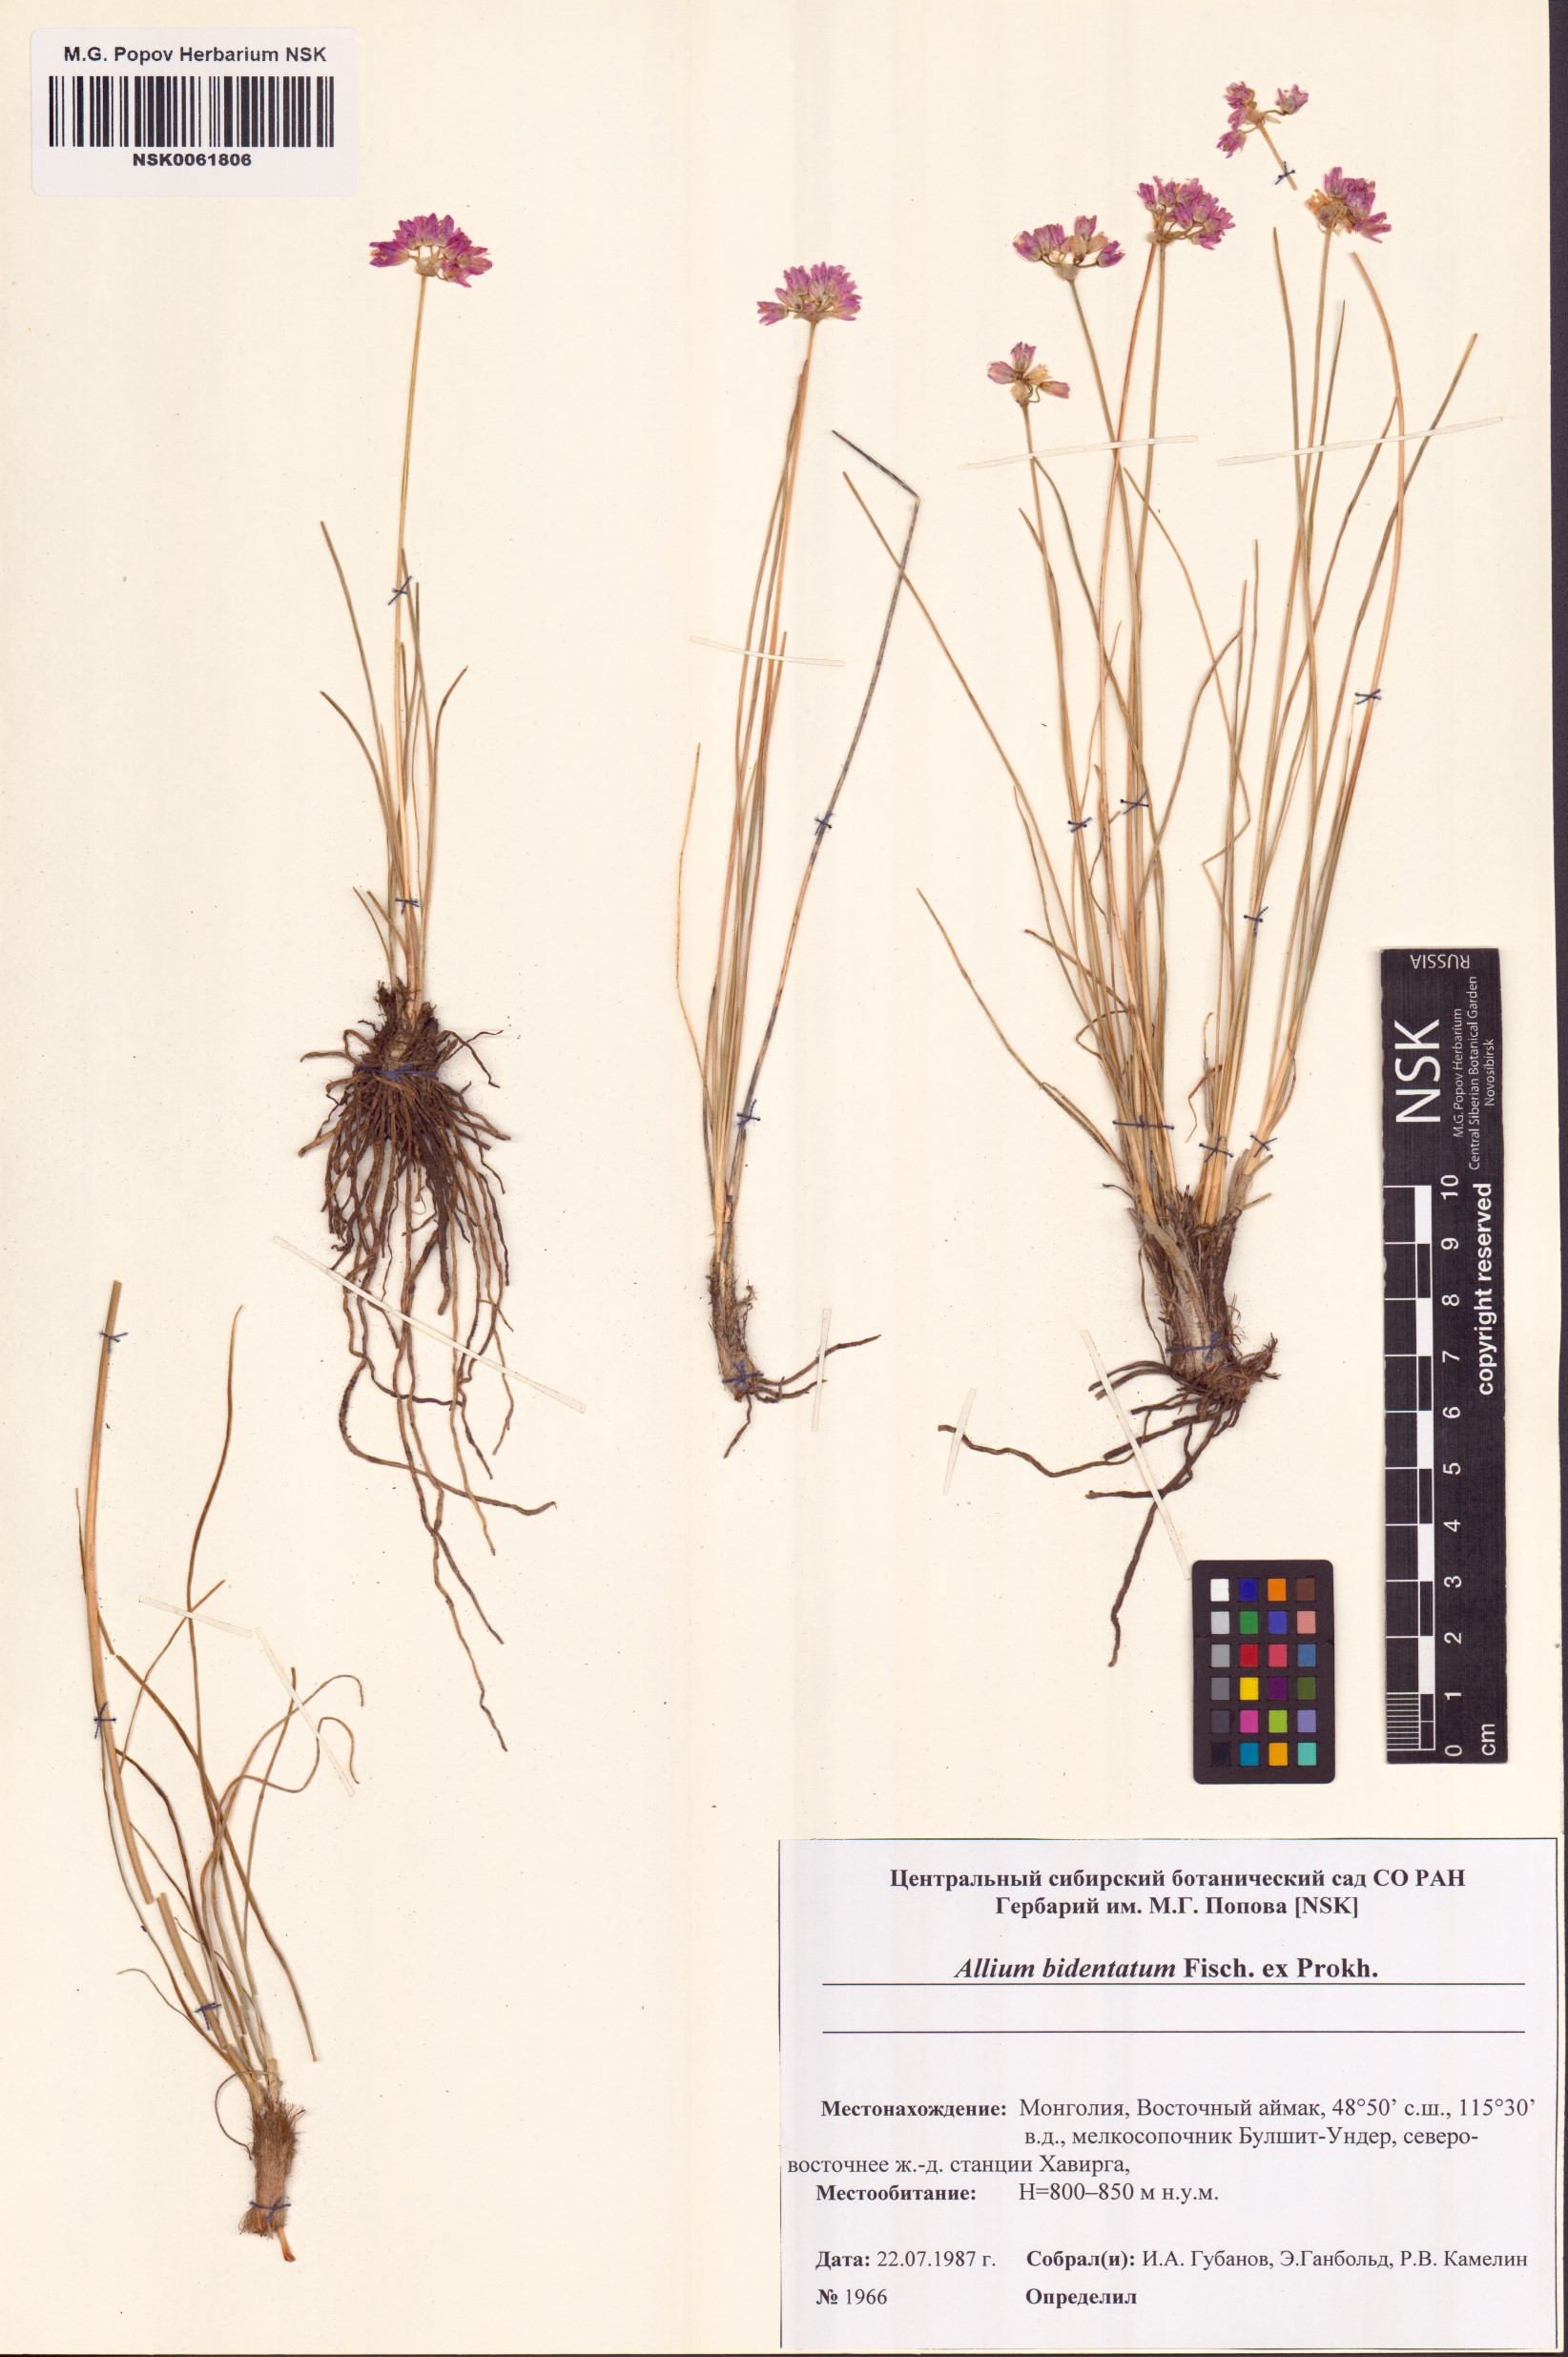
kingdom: Plantae
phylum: Tracheophyta
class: Liliopsida
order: Asparagales
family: Amaryllidaceae
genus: Allium
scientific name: Allium bidentatum
